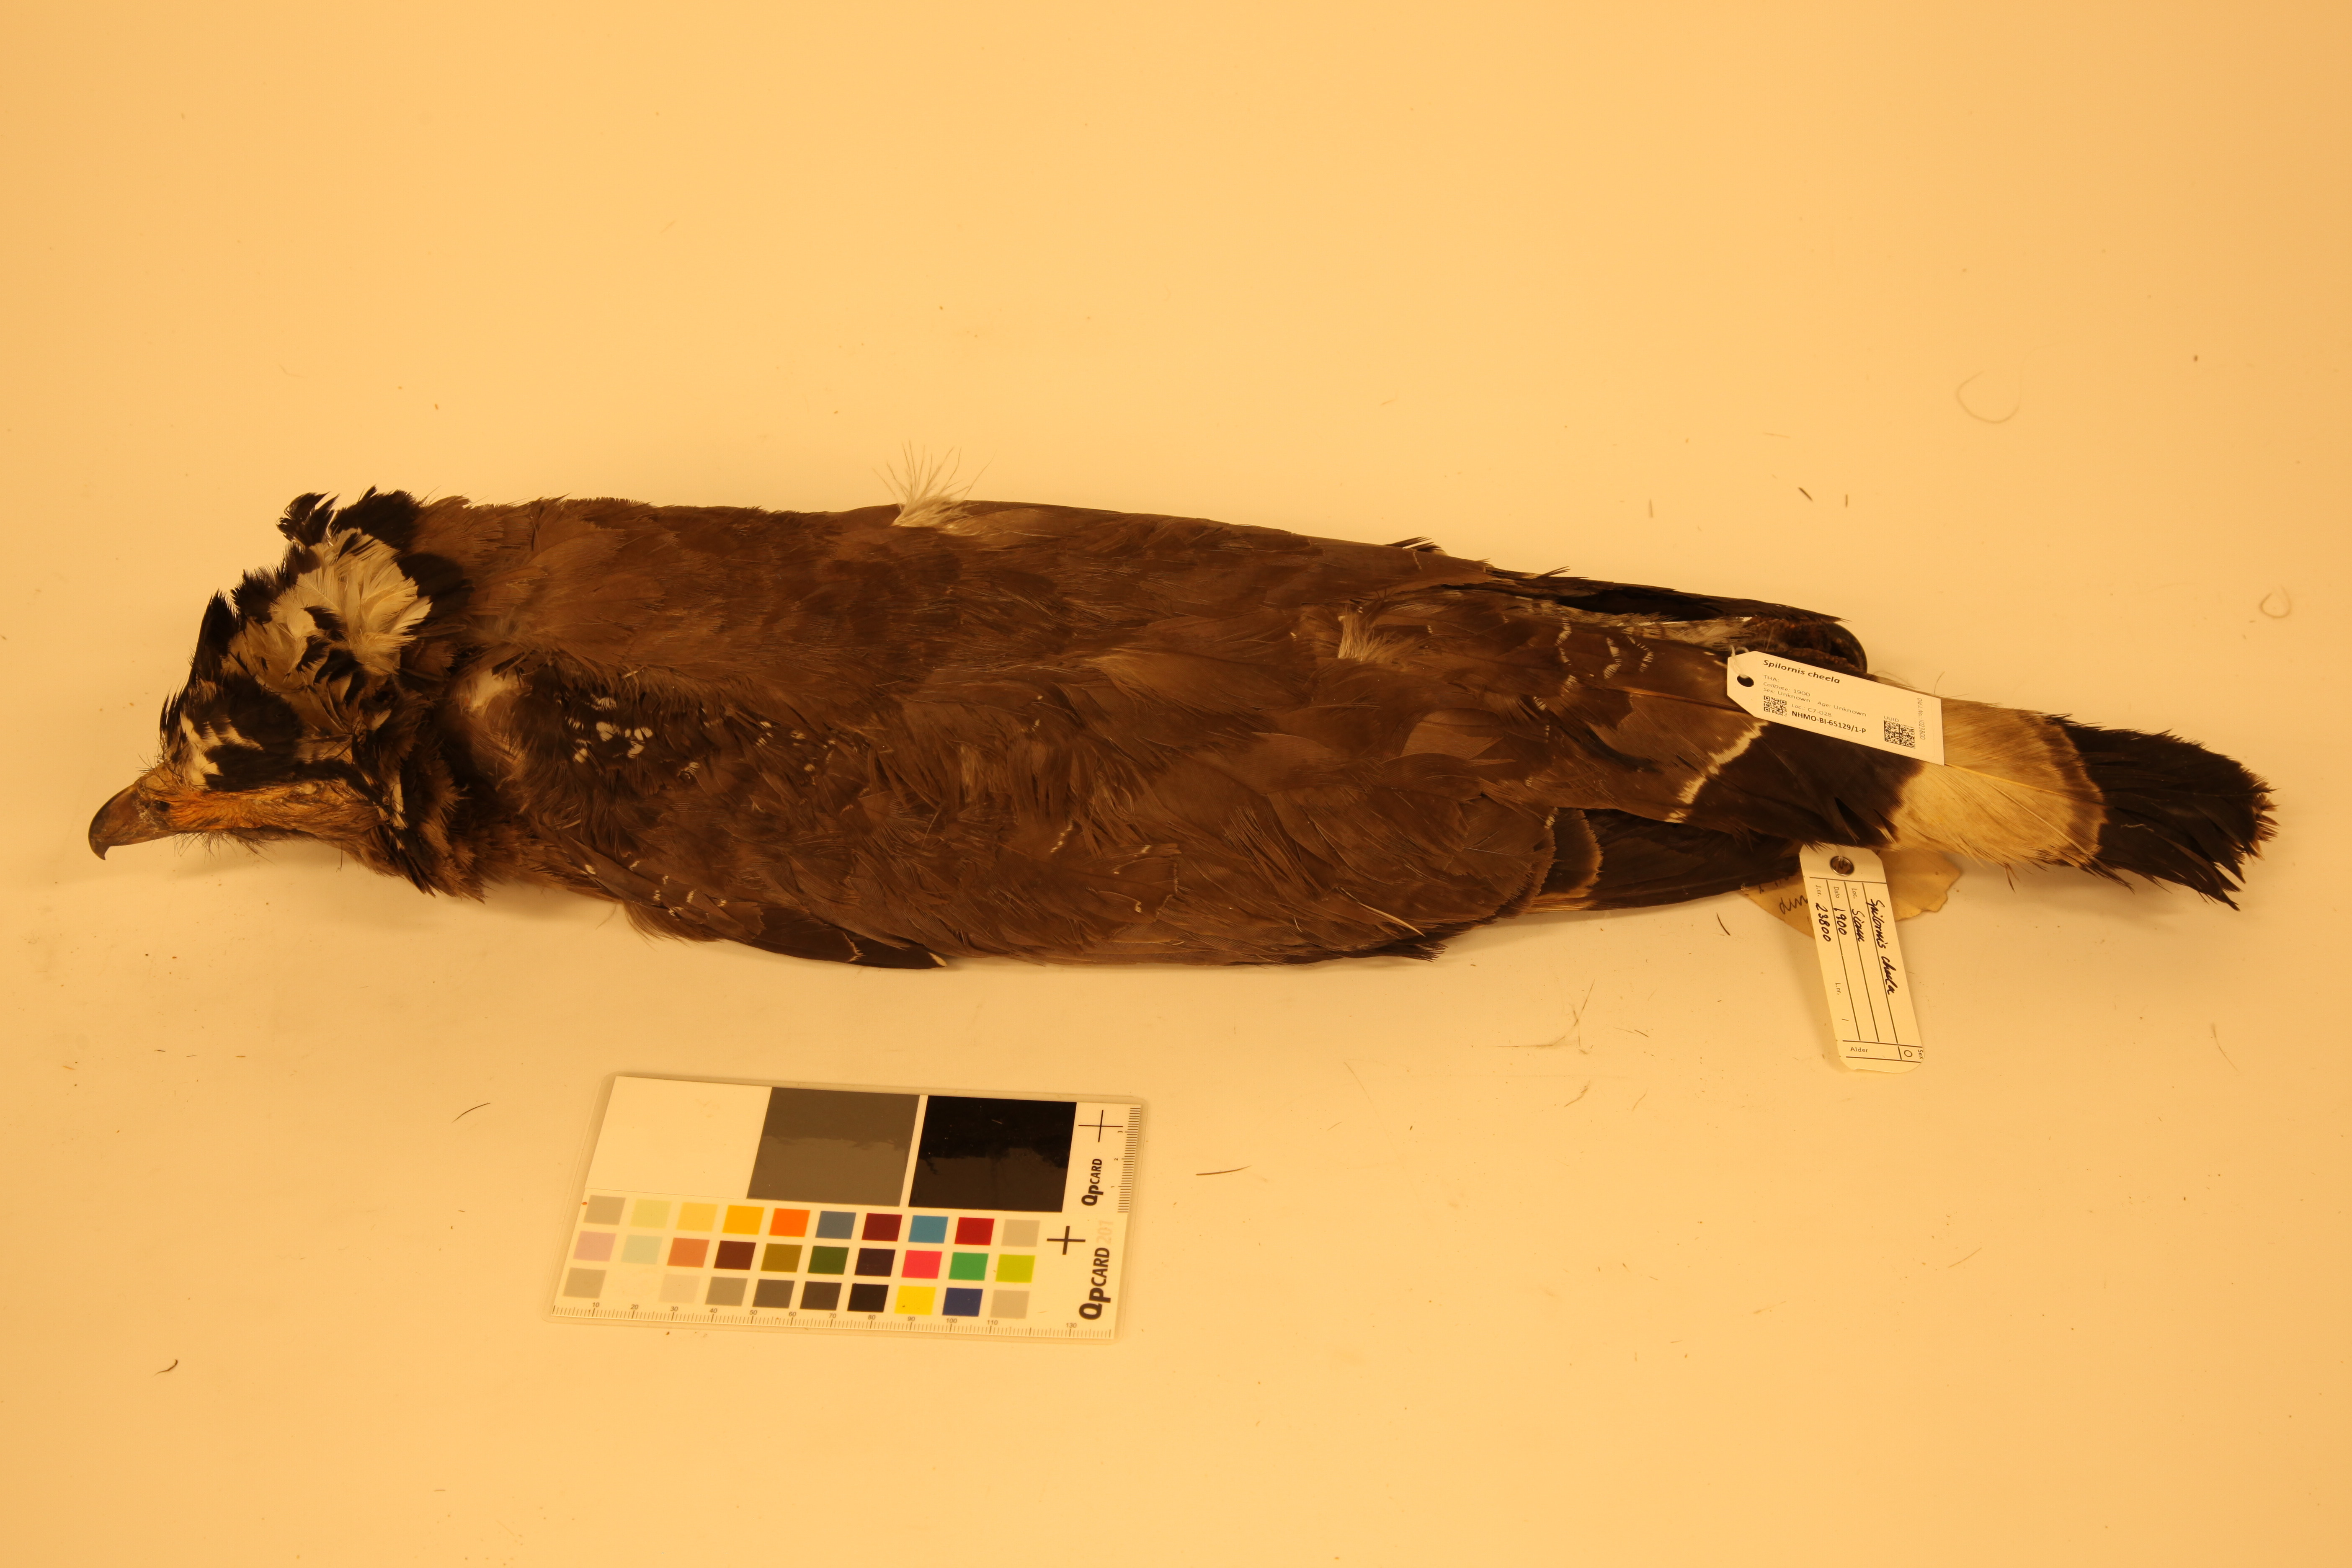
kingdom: Animalia
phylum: Chordata
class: Aves
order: Accipitriformes
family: Accipitridae
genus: Spilornis
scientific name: Spilornis cheela
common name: Crested serpent eagle
